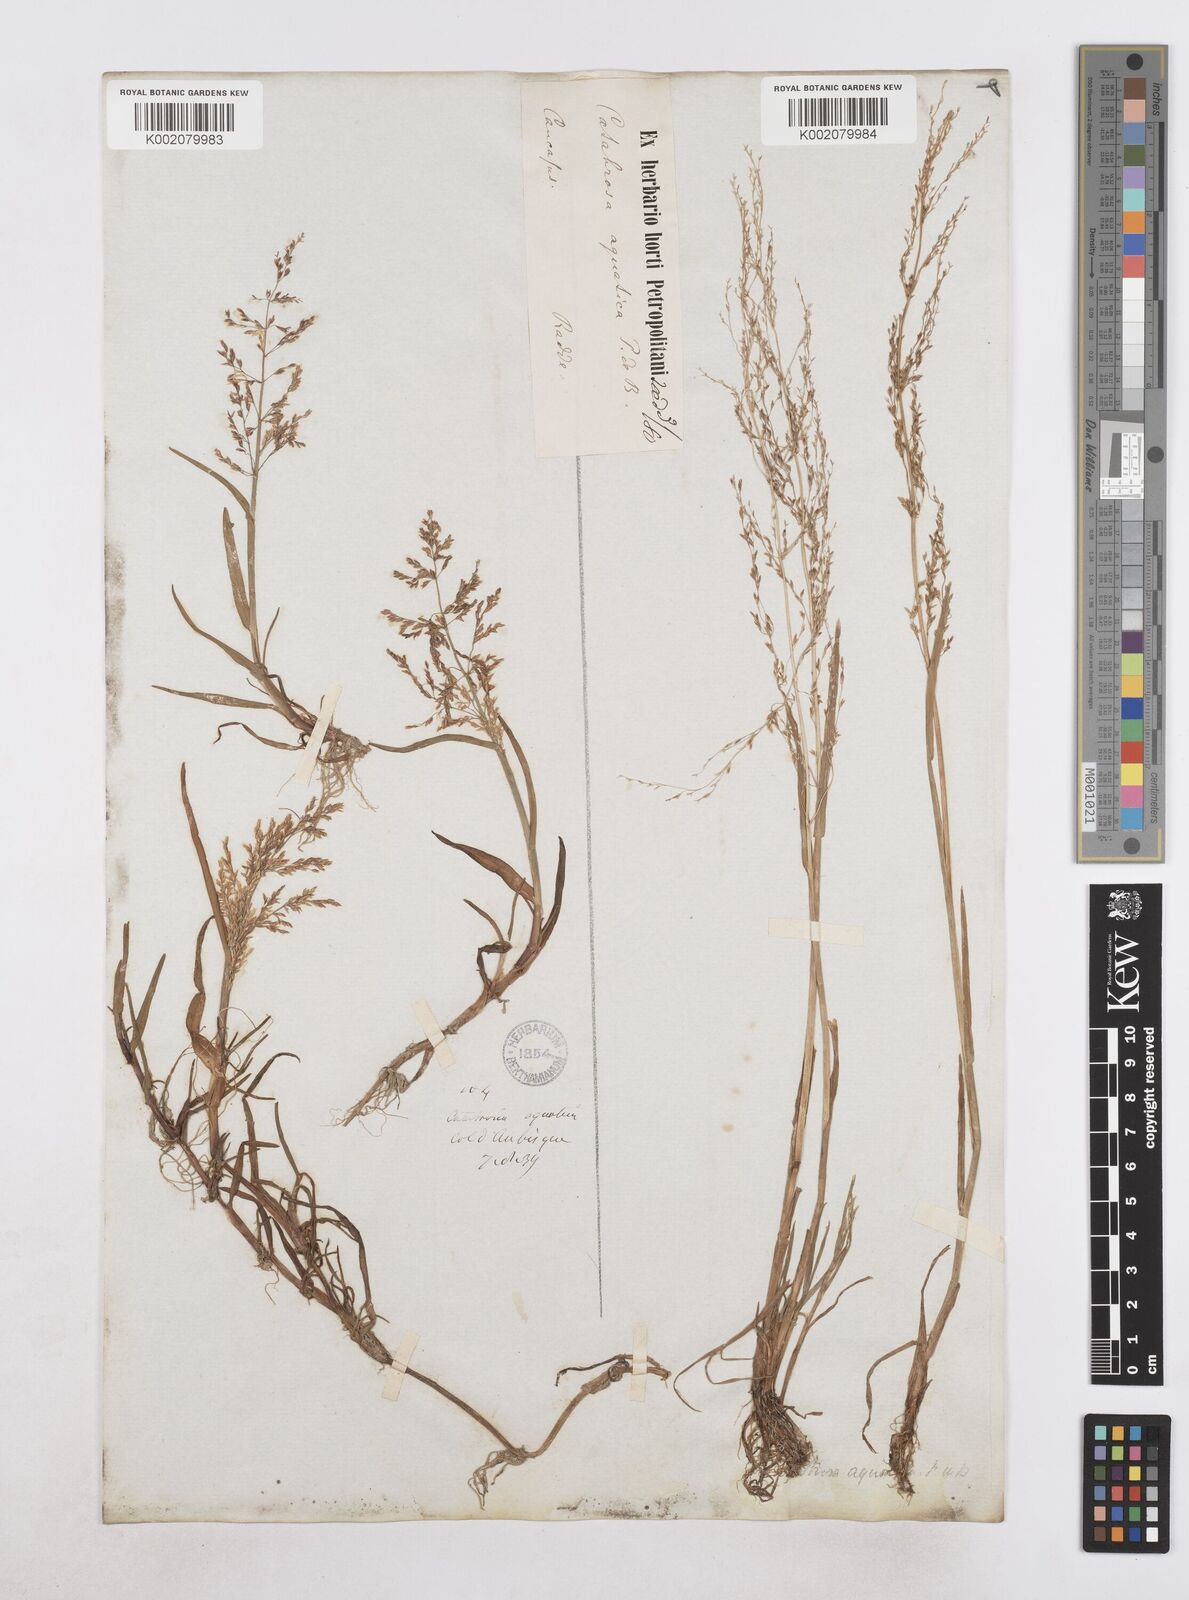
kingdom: Plantae
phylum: Tracheophyta
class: Liliopsida
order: Poales
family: Poaceae
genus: Catabrosa
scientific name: Catabrosa aquatica
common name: Whorl-grass
